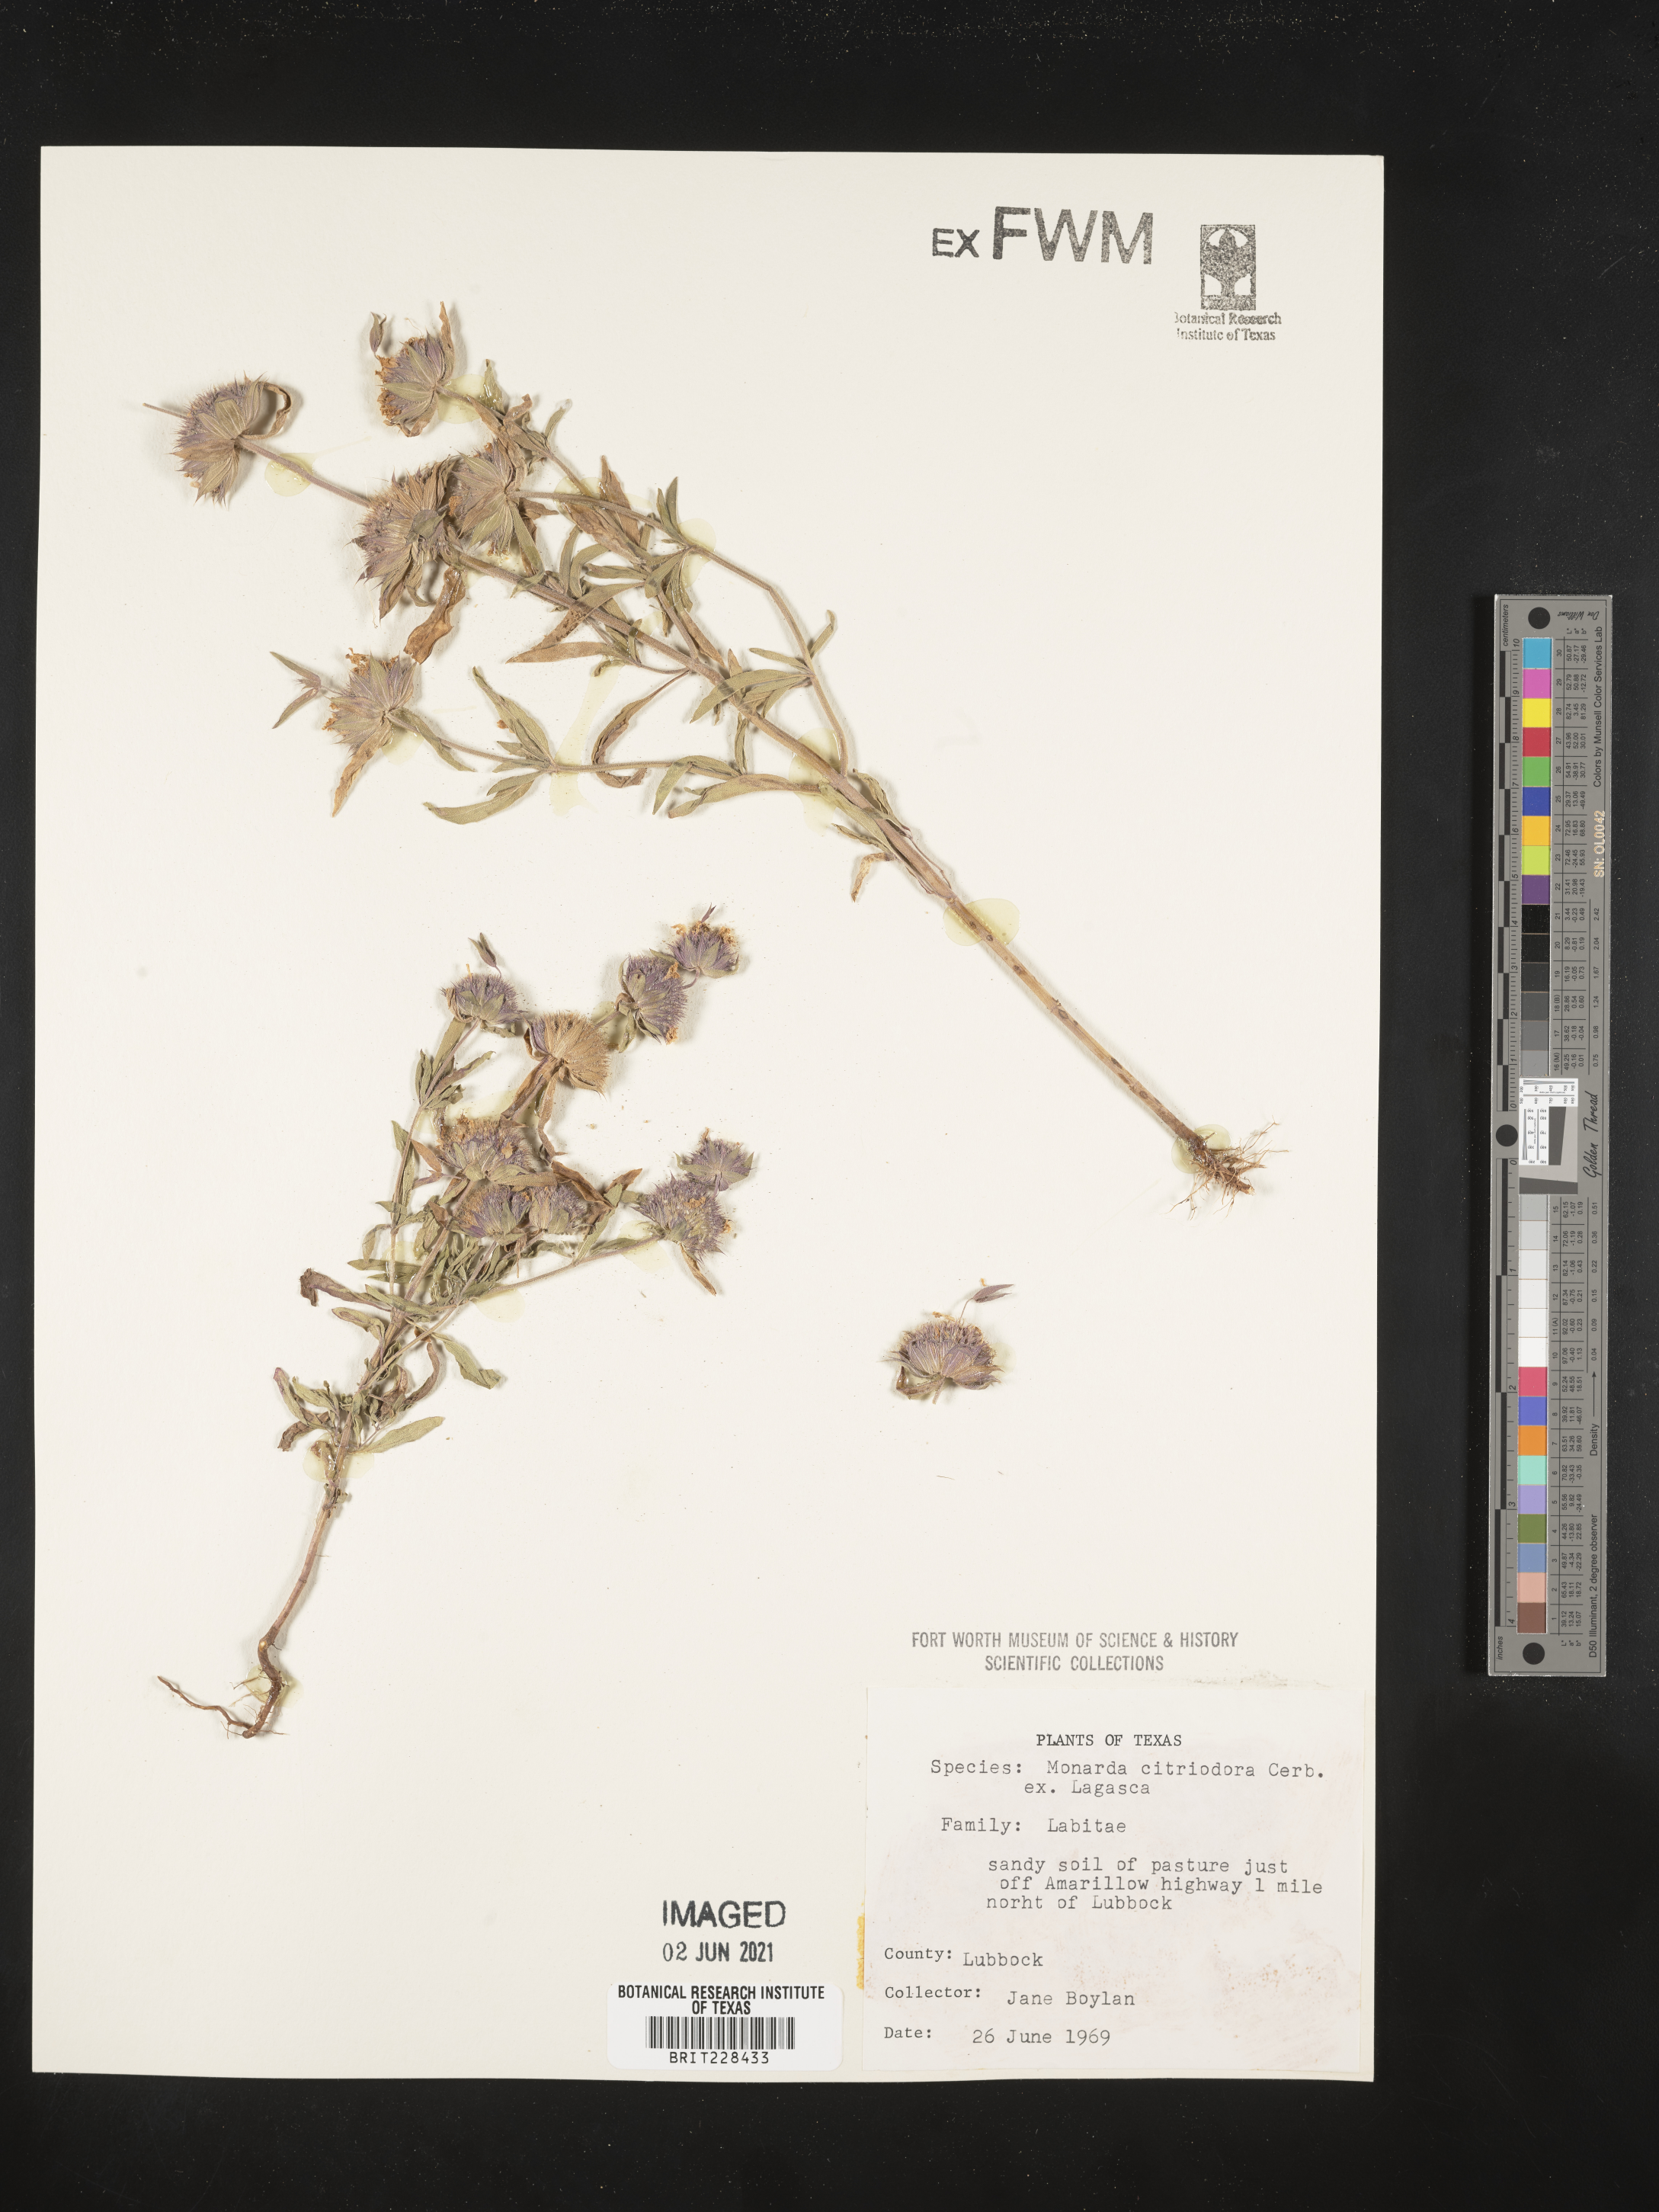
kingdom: Plantae
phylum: Tracheophyta
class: Magnoliopsida
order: Lamiales
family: Lamiaceae
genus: Monarda
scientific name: Monarda citriodora
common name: Lemon beebalm
